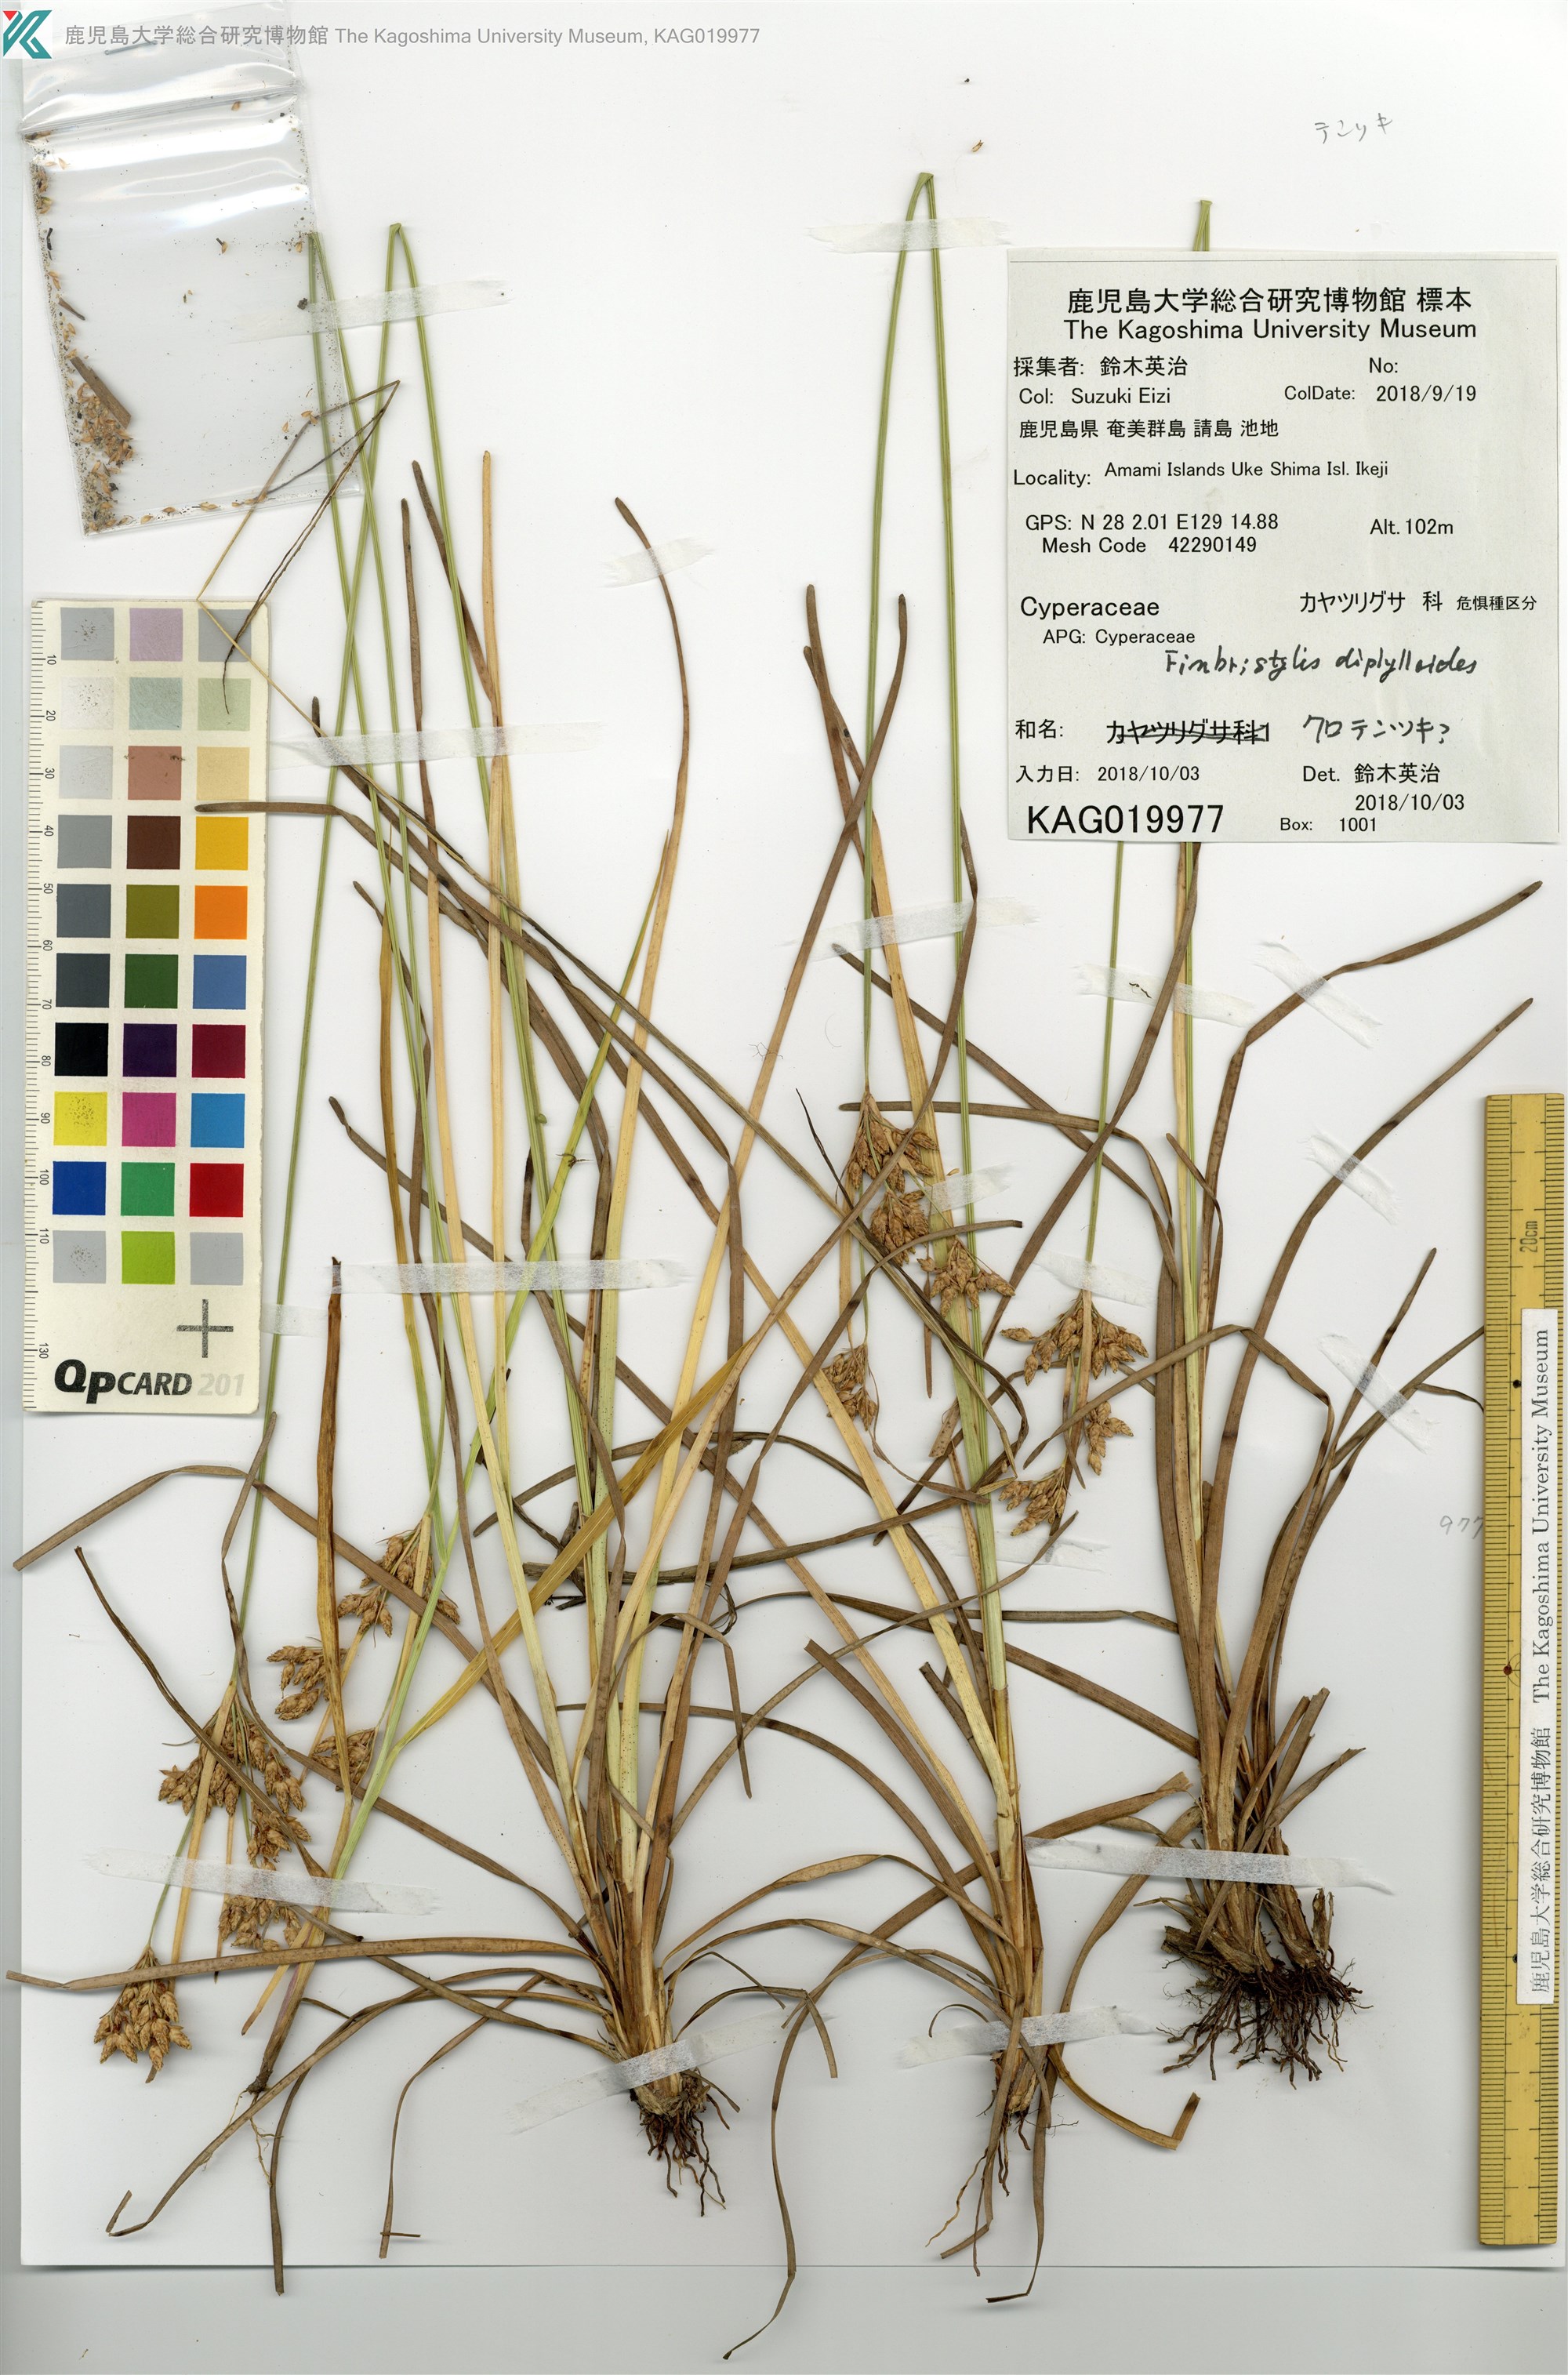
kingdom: Plantae
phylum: Tracheophyta
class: Liliopsida
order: Poales
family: Cyperaceae
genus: Fimbristylis
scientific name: Fimbristylis
